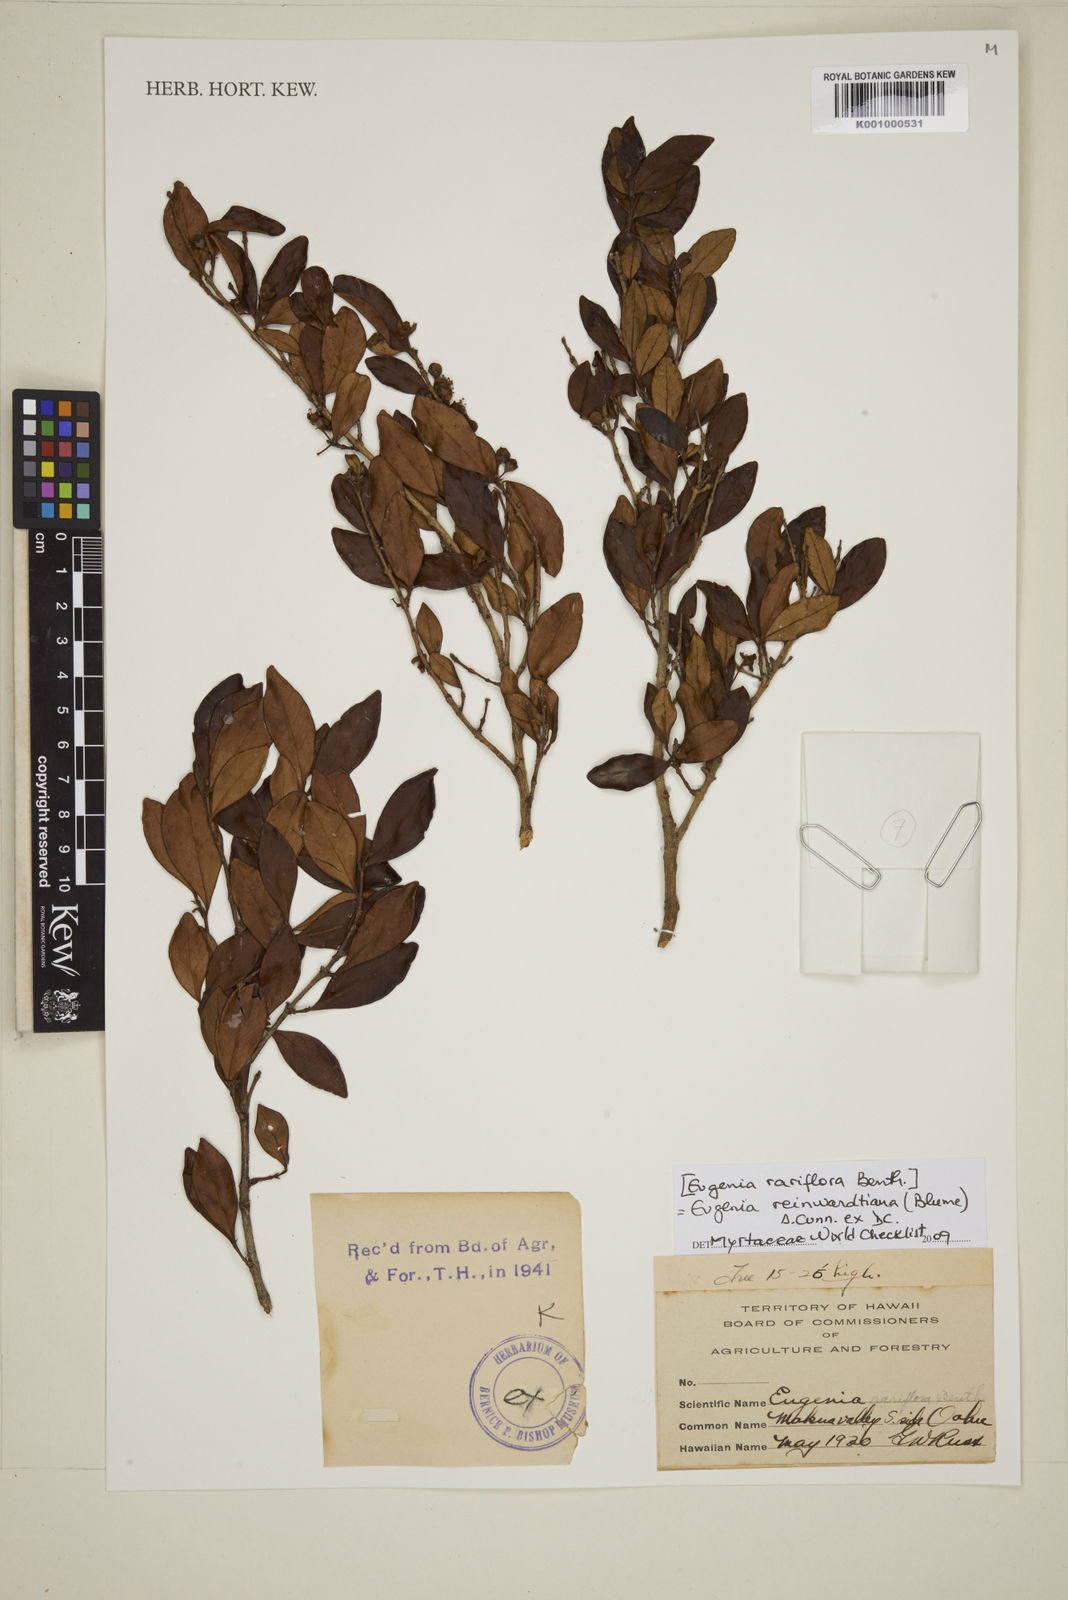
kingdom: Plantae
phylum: Tracheophyta
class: Magnoliopsida
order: Myrtales
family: Myrtaceae
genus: Eugenia
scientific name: Eugenia reinwardtiana
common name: Cedar bay-cherry
